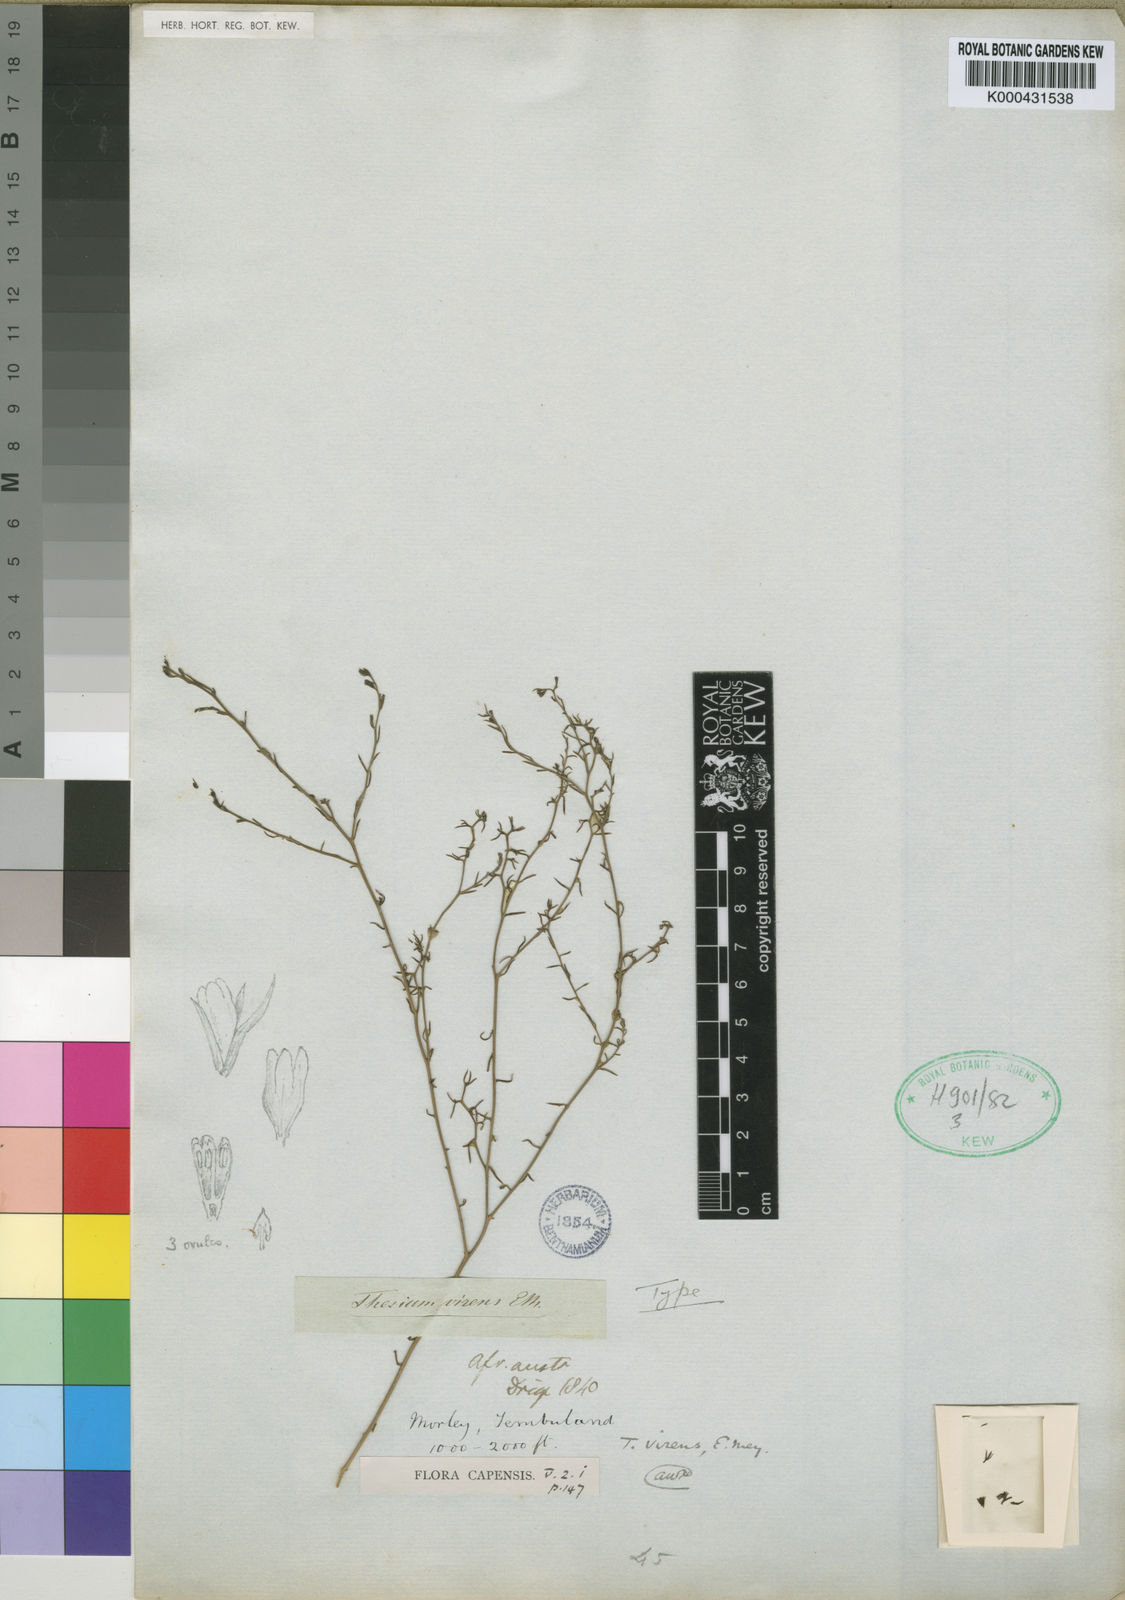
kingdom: Plantae
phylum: Tracheophyta
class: Magnoliopsida
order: Santalales
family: Thesiaceae
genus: Thesium
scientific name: Thesium virens
